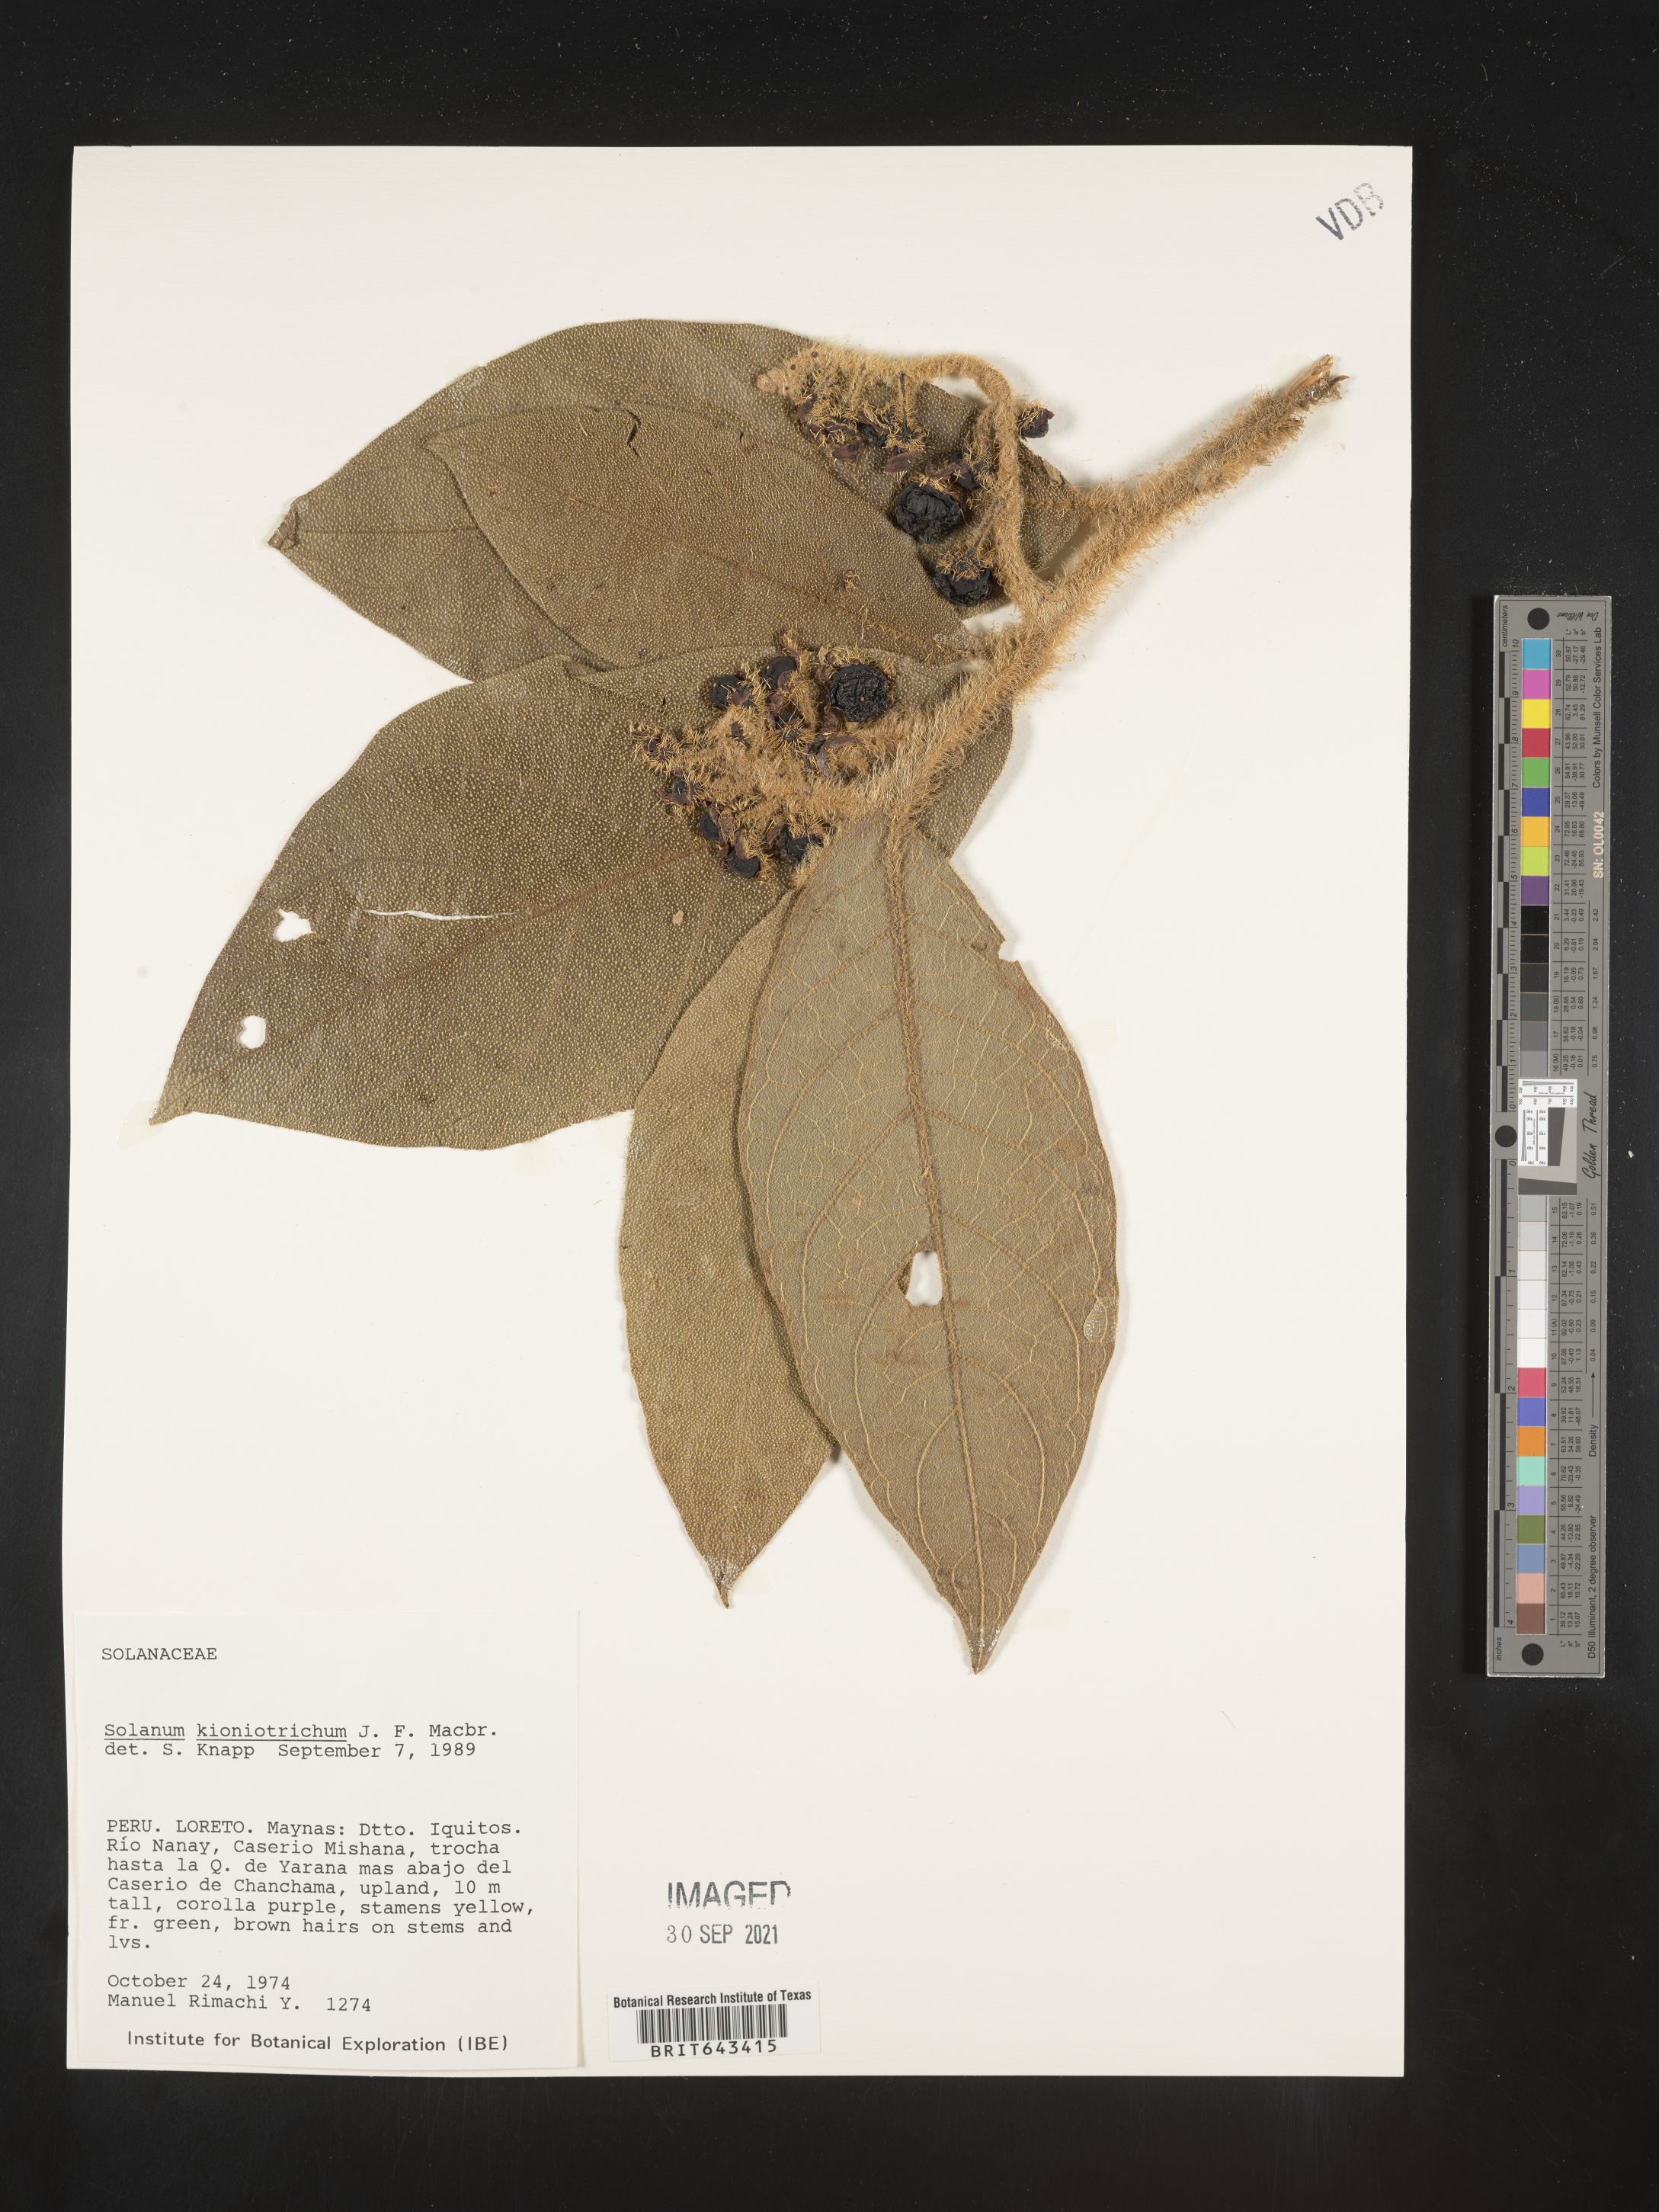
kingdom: Plantae
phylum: Tracheophyta
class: Magnoliopsida
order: Solanales
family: Solanaceae
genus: Solanum
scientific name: Solanum
